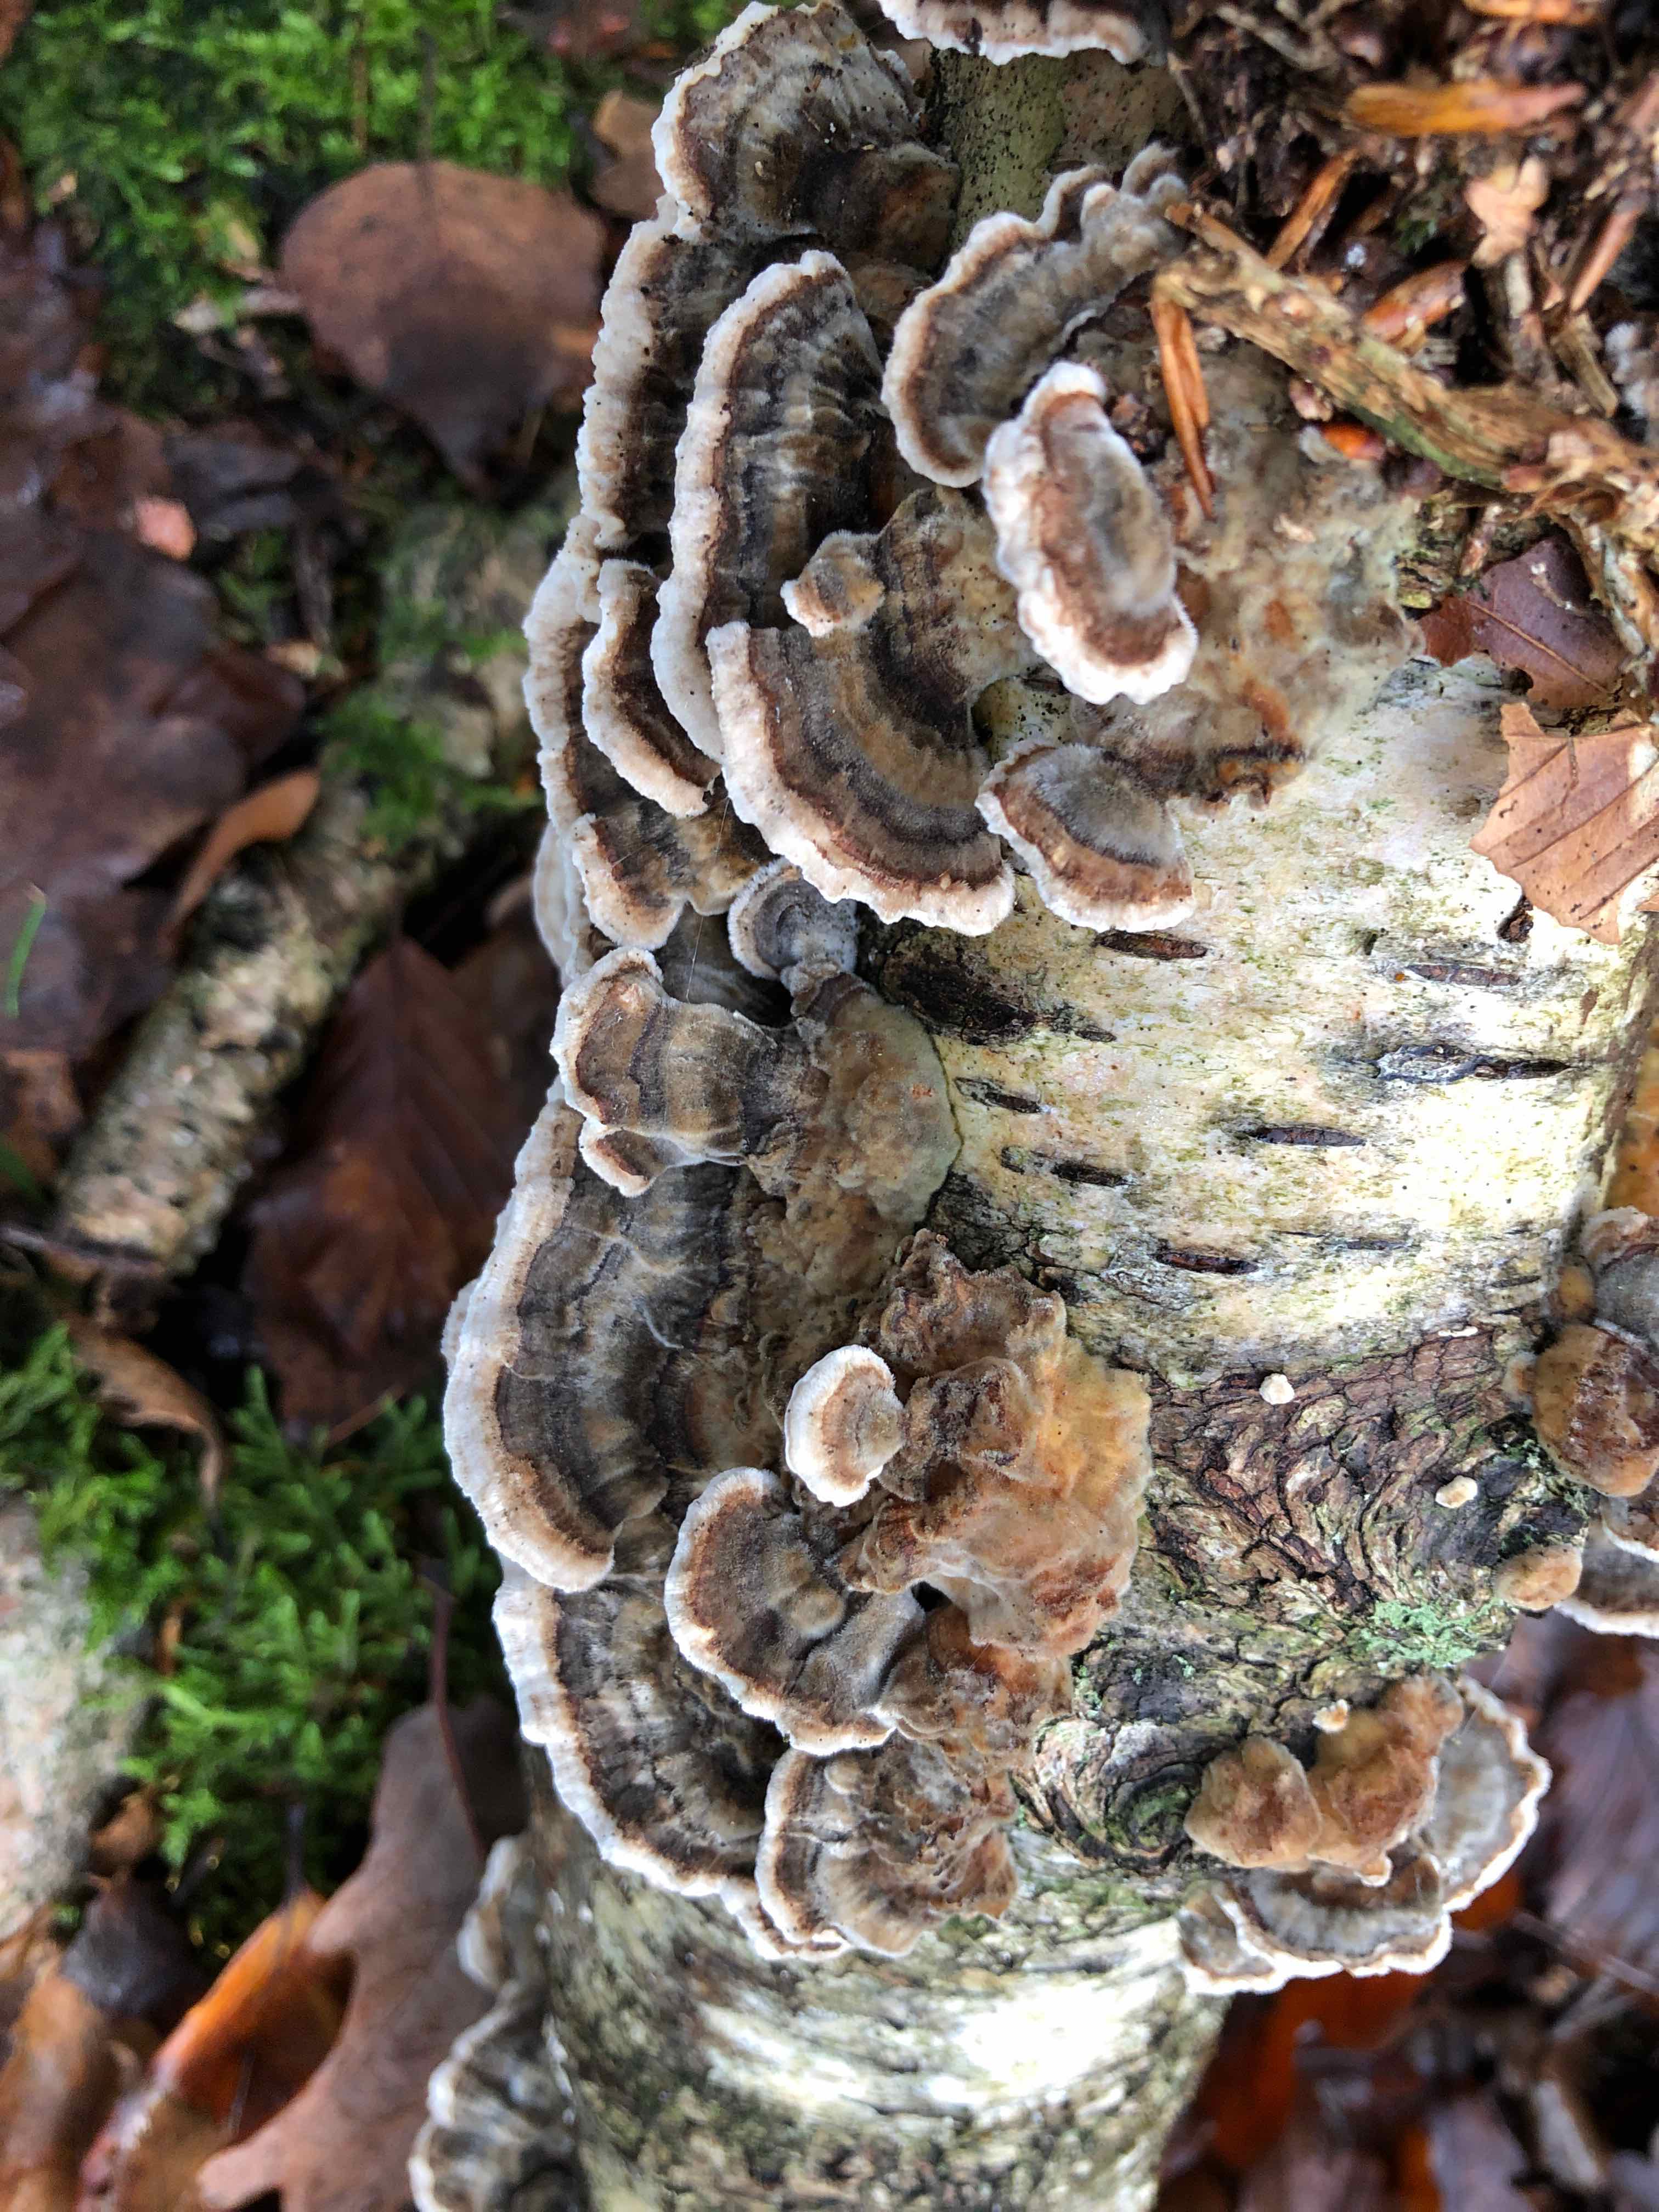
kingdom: Fungi
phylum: Basidiomycota
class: Agaricomycetes
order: Polyporales
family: Polyporaceae
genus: Trametes
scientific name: Trametes versicolor
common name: broget læderporesvamp
